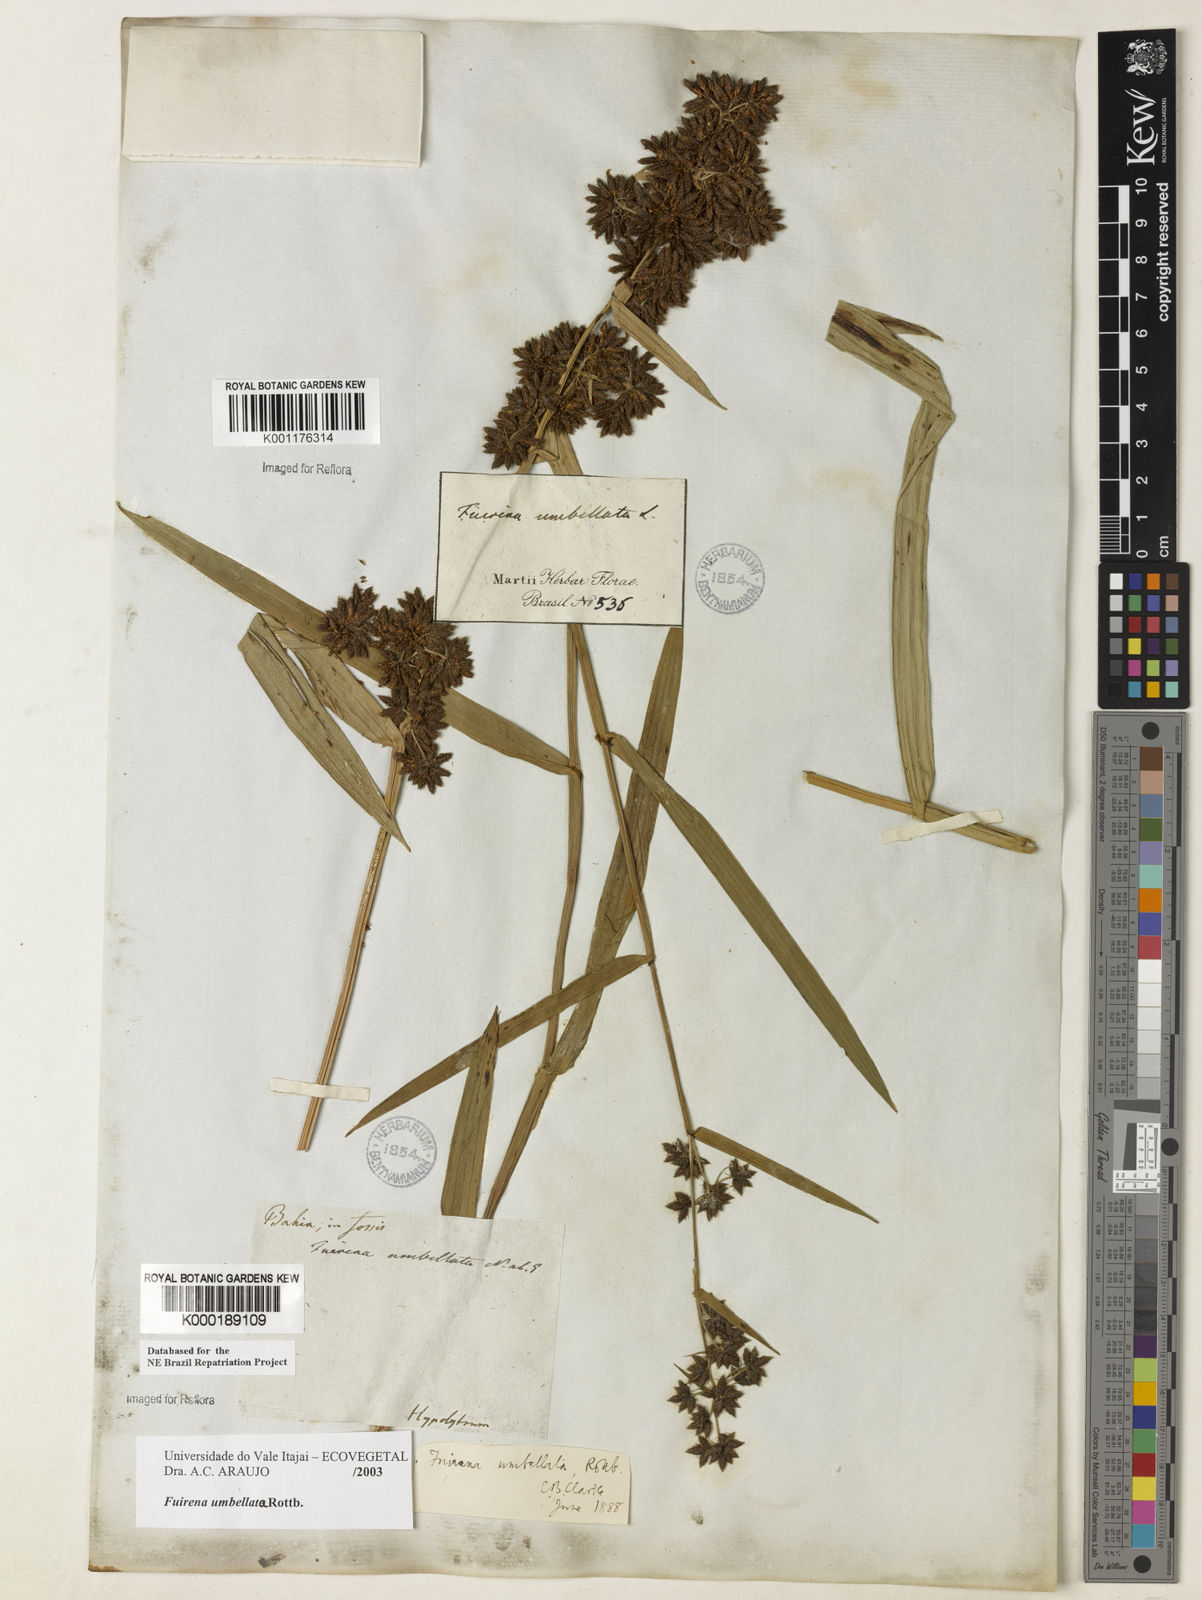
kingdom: Plantae
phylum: Tracheophyta
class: Liliopsida
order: Poales
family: Cyperaceae
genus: Fuirena
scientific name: Fuirena umbellata
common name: Yefen
